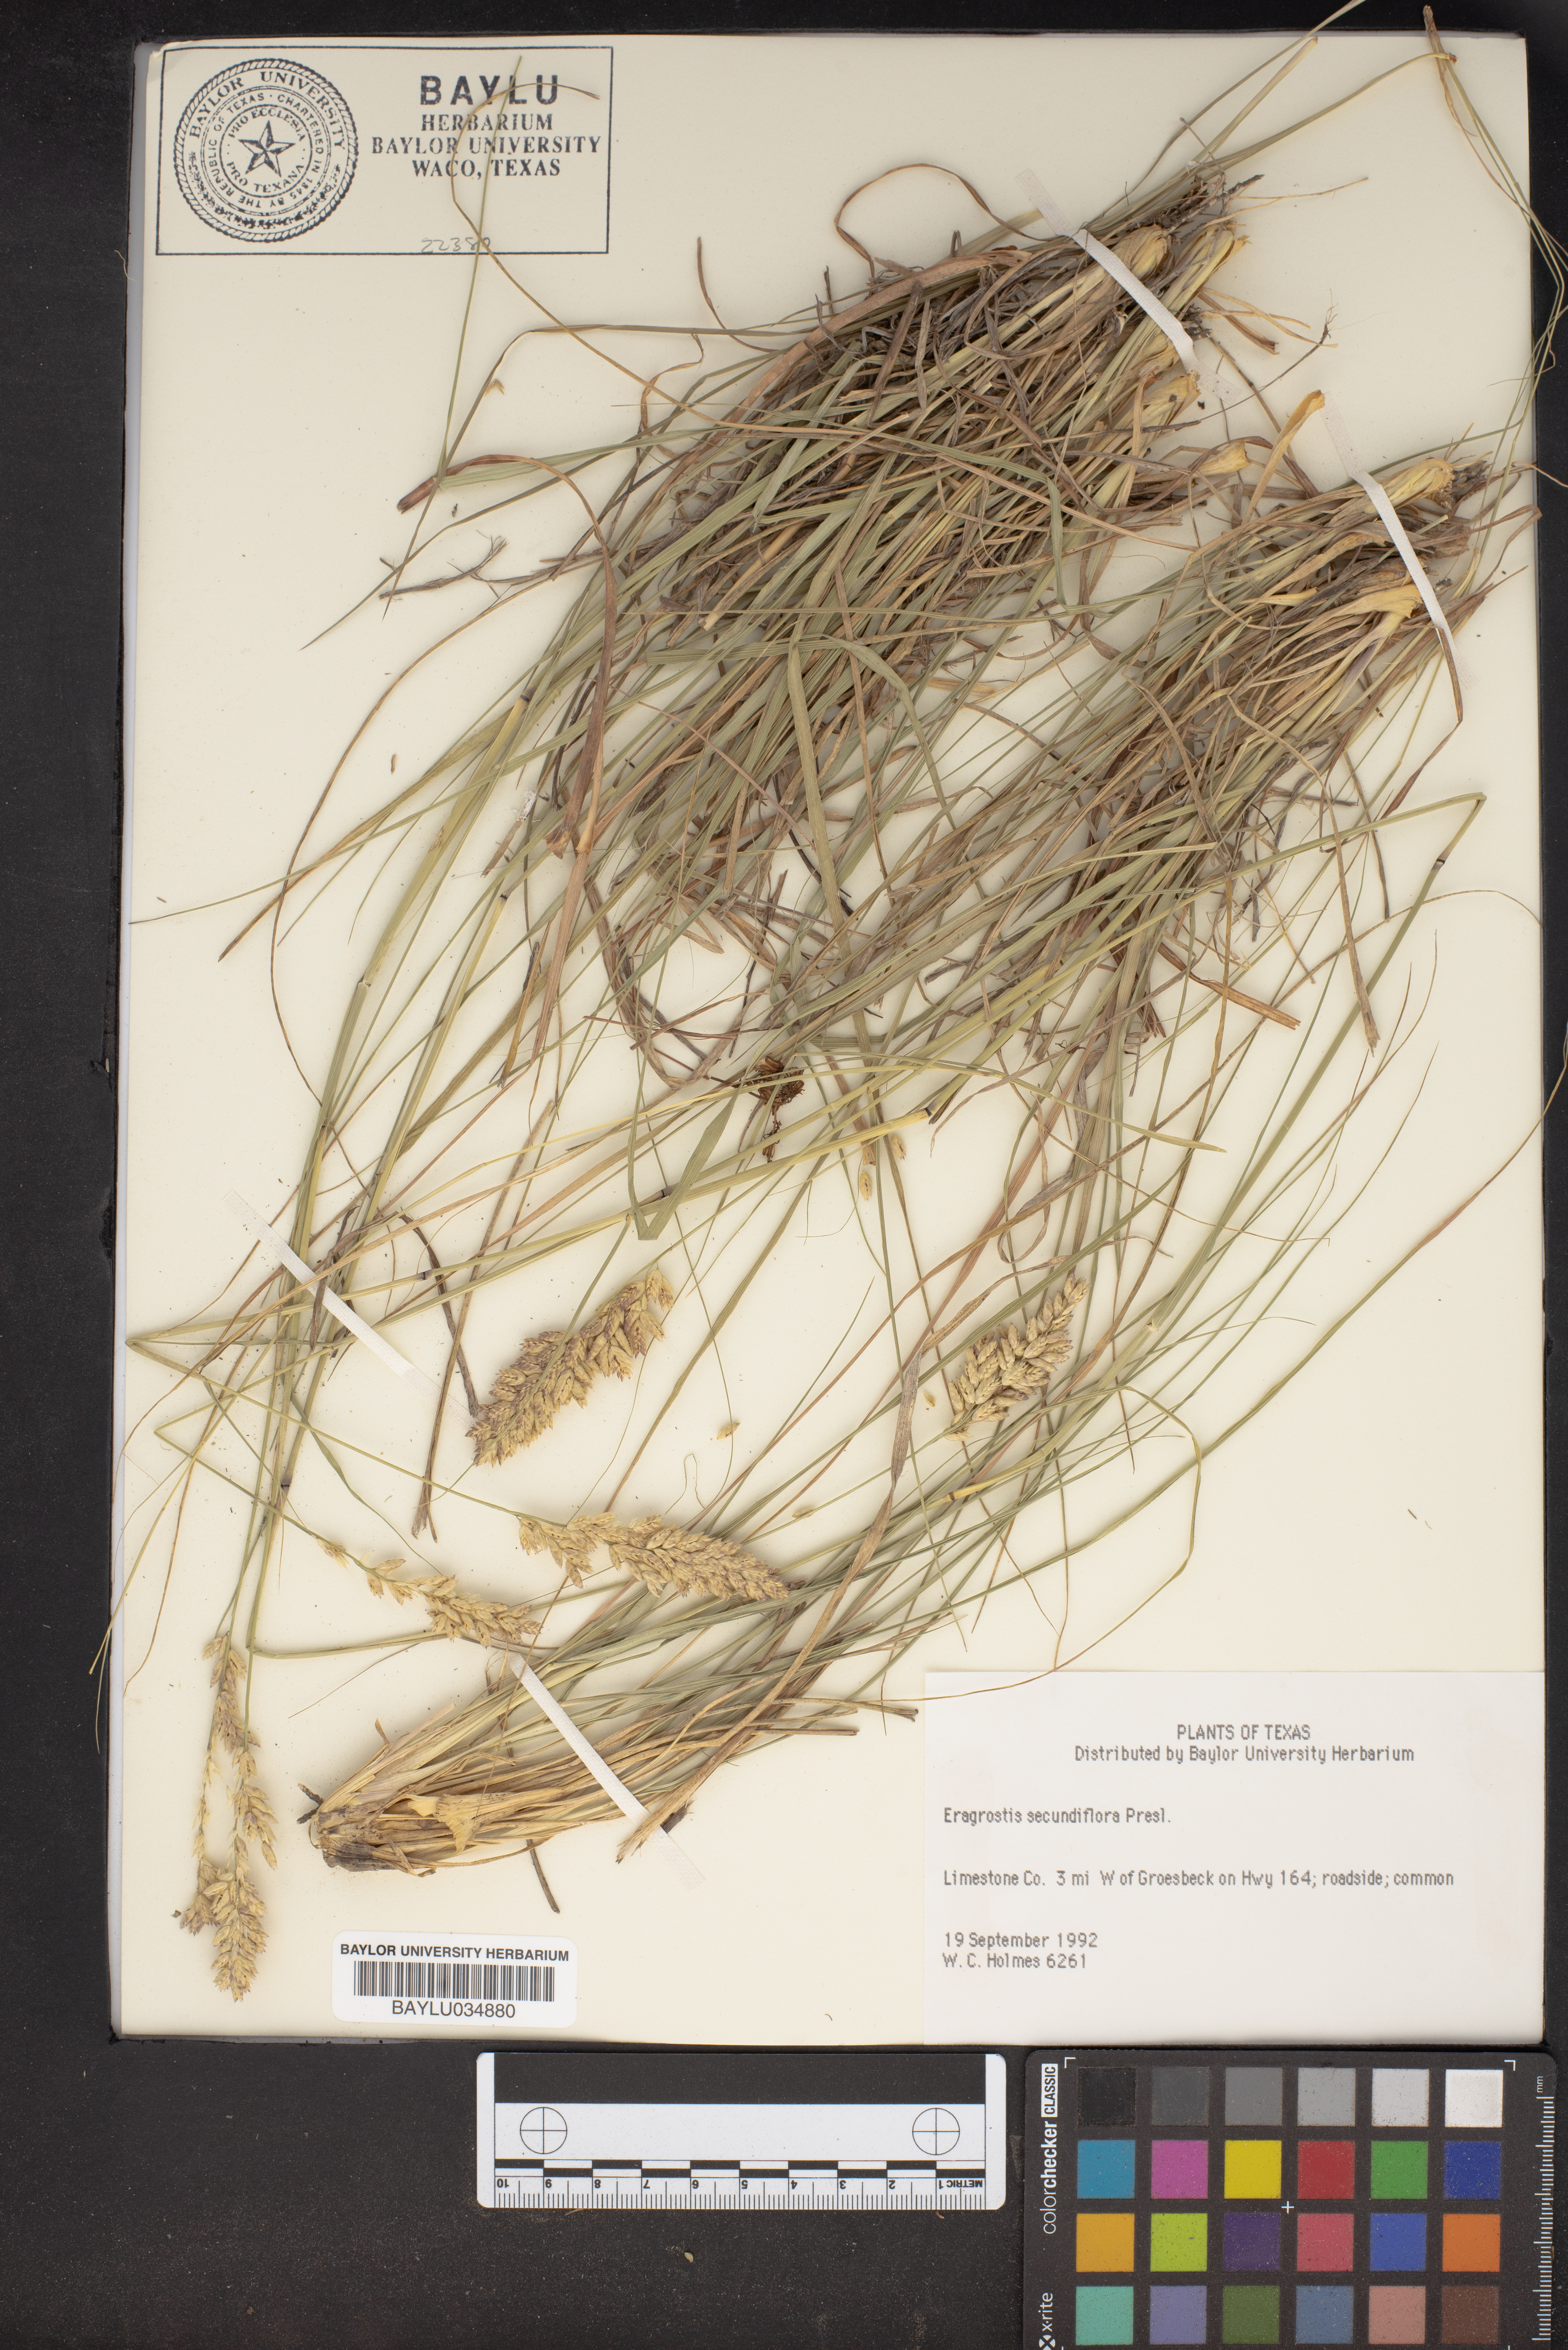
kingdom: Plantae
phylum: Tracheophyta
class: Liliopsida
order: Poales
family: Poaceae
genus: Eragrostis
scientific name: Eragrostis secundiflora
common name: Red love grass
